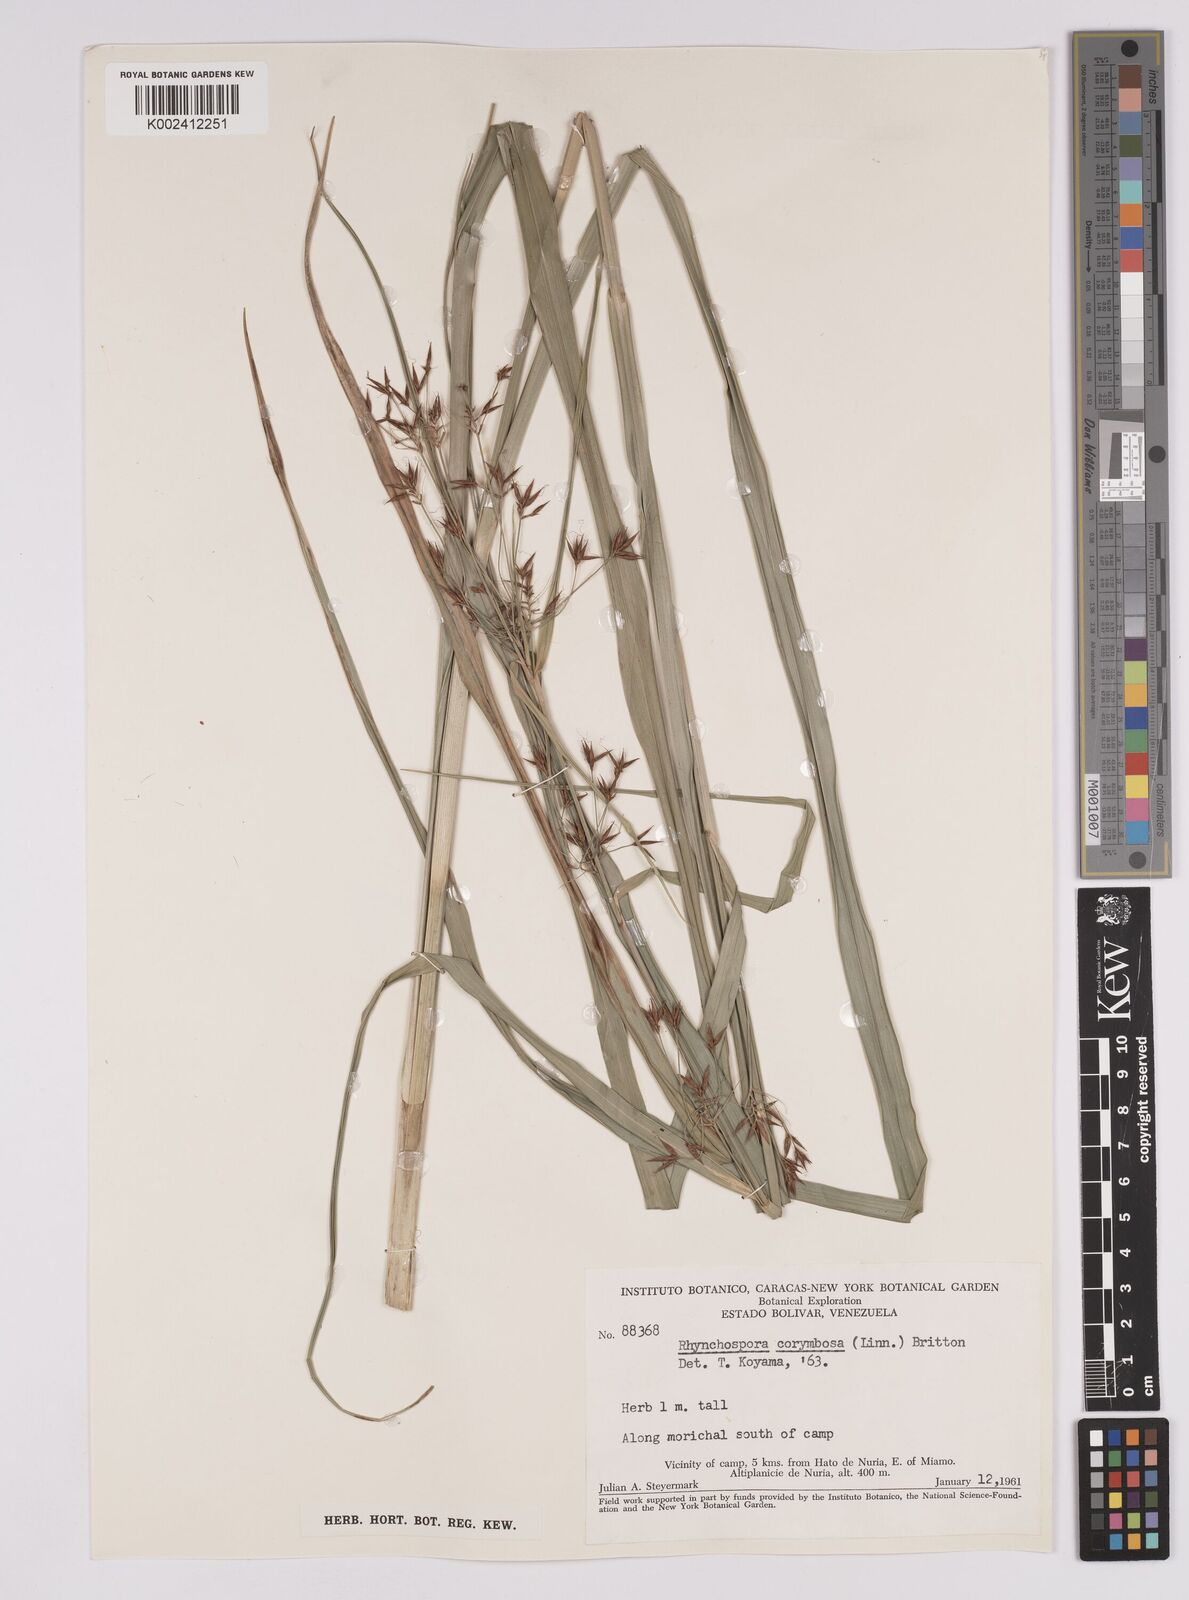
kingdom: Plantae
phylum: Tracheophyta
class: Liliopsida
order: Poales
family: Cyperaceae
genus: Rhynchospora
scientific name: Rhynchospora corymbosa
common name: Golden beak sedge
